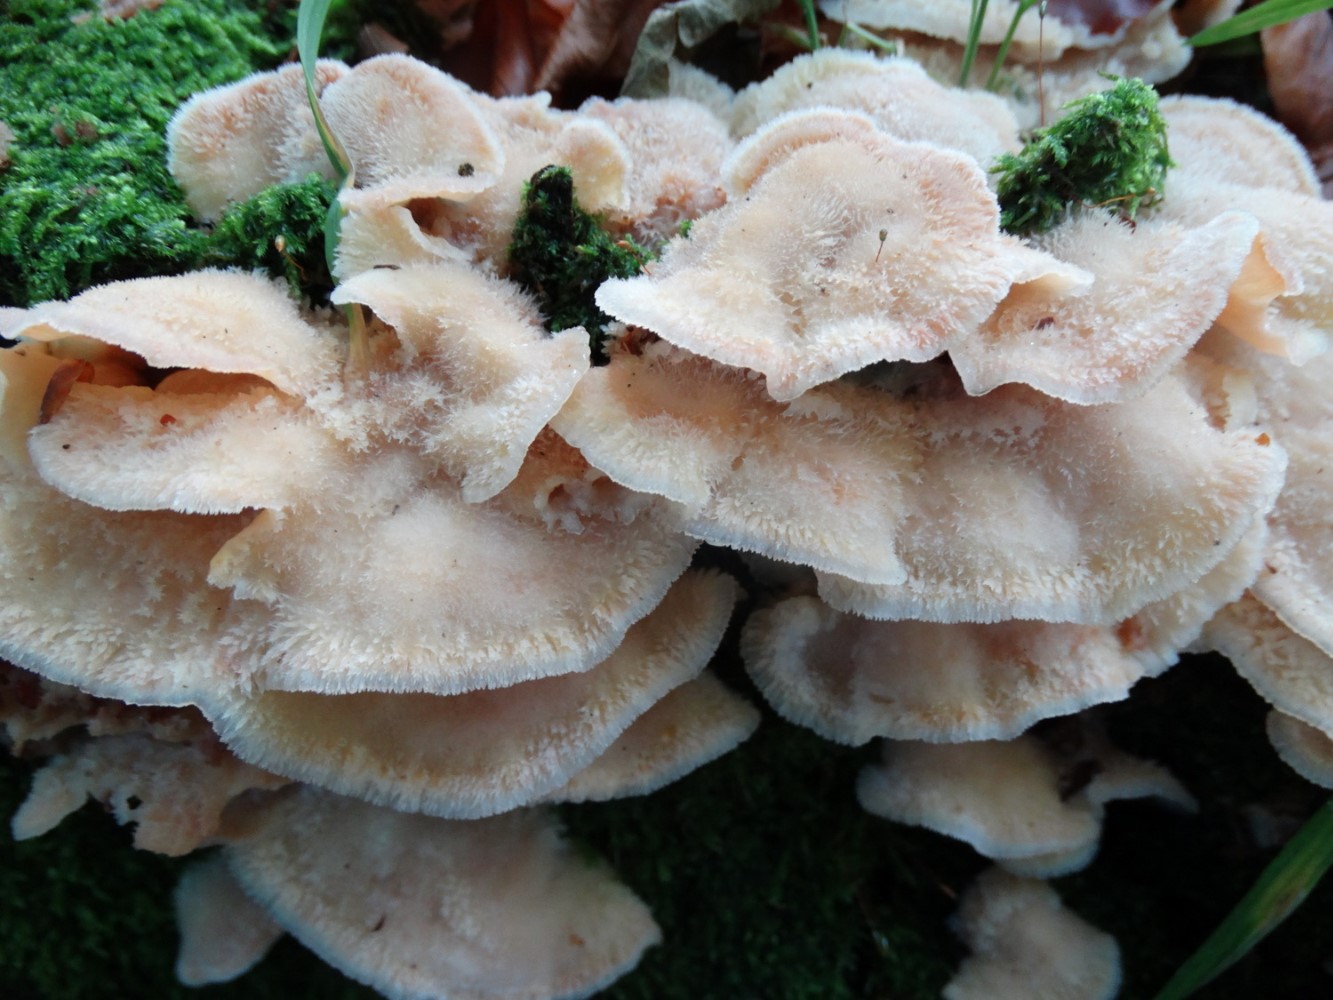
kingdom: Fungi
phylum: Basidiomycota
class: Agaricomycetes
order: Polyporales
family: Meruliaceae
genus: Phlebia
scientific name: Phlebia tremellosa
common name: bævrende åresvamp
